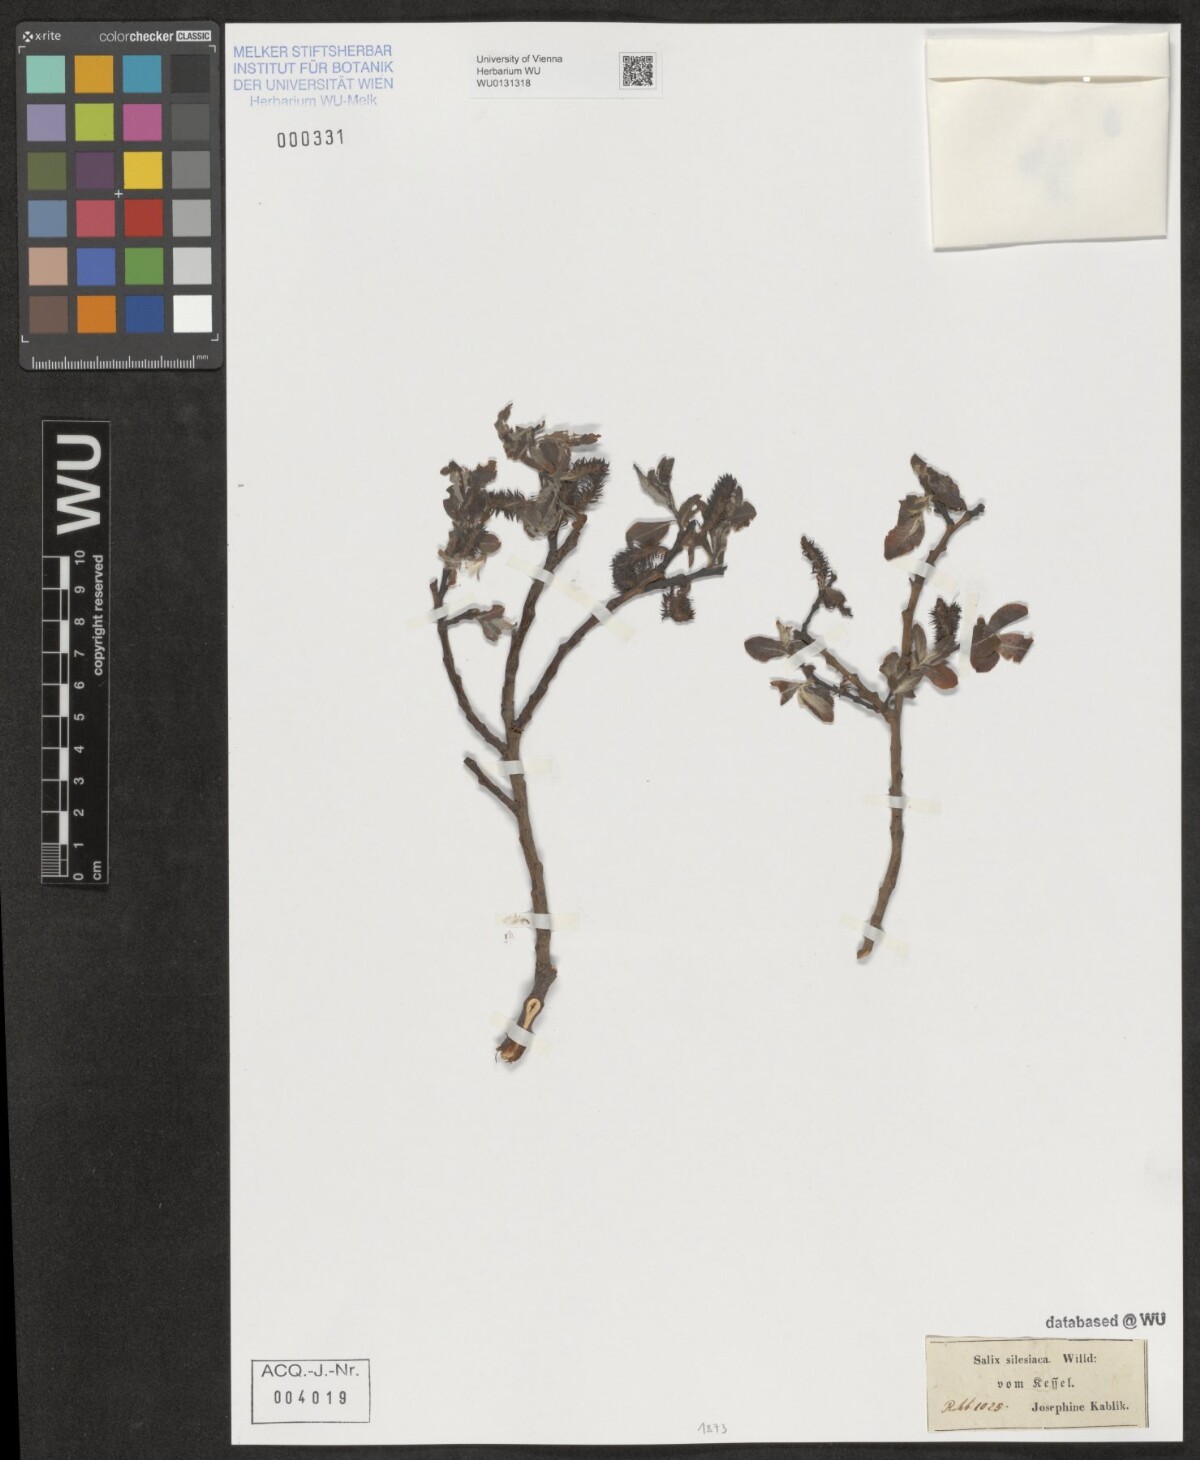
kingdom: Plantae
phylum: Tracheophyta
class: Magnoliopsida
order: Malpighiales
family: Salicaceae
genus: Salix
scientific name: Salix silesiaca
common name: Silesian willow
